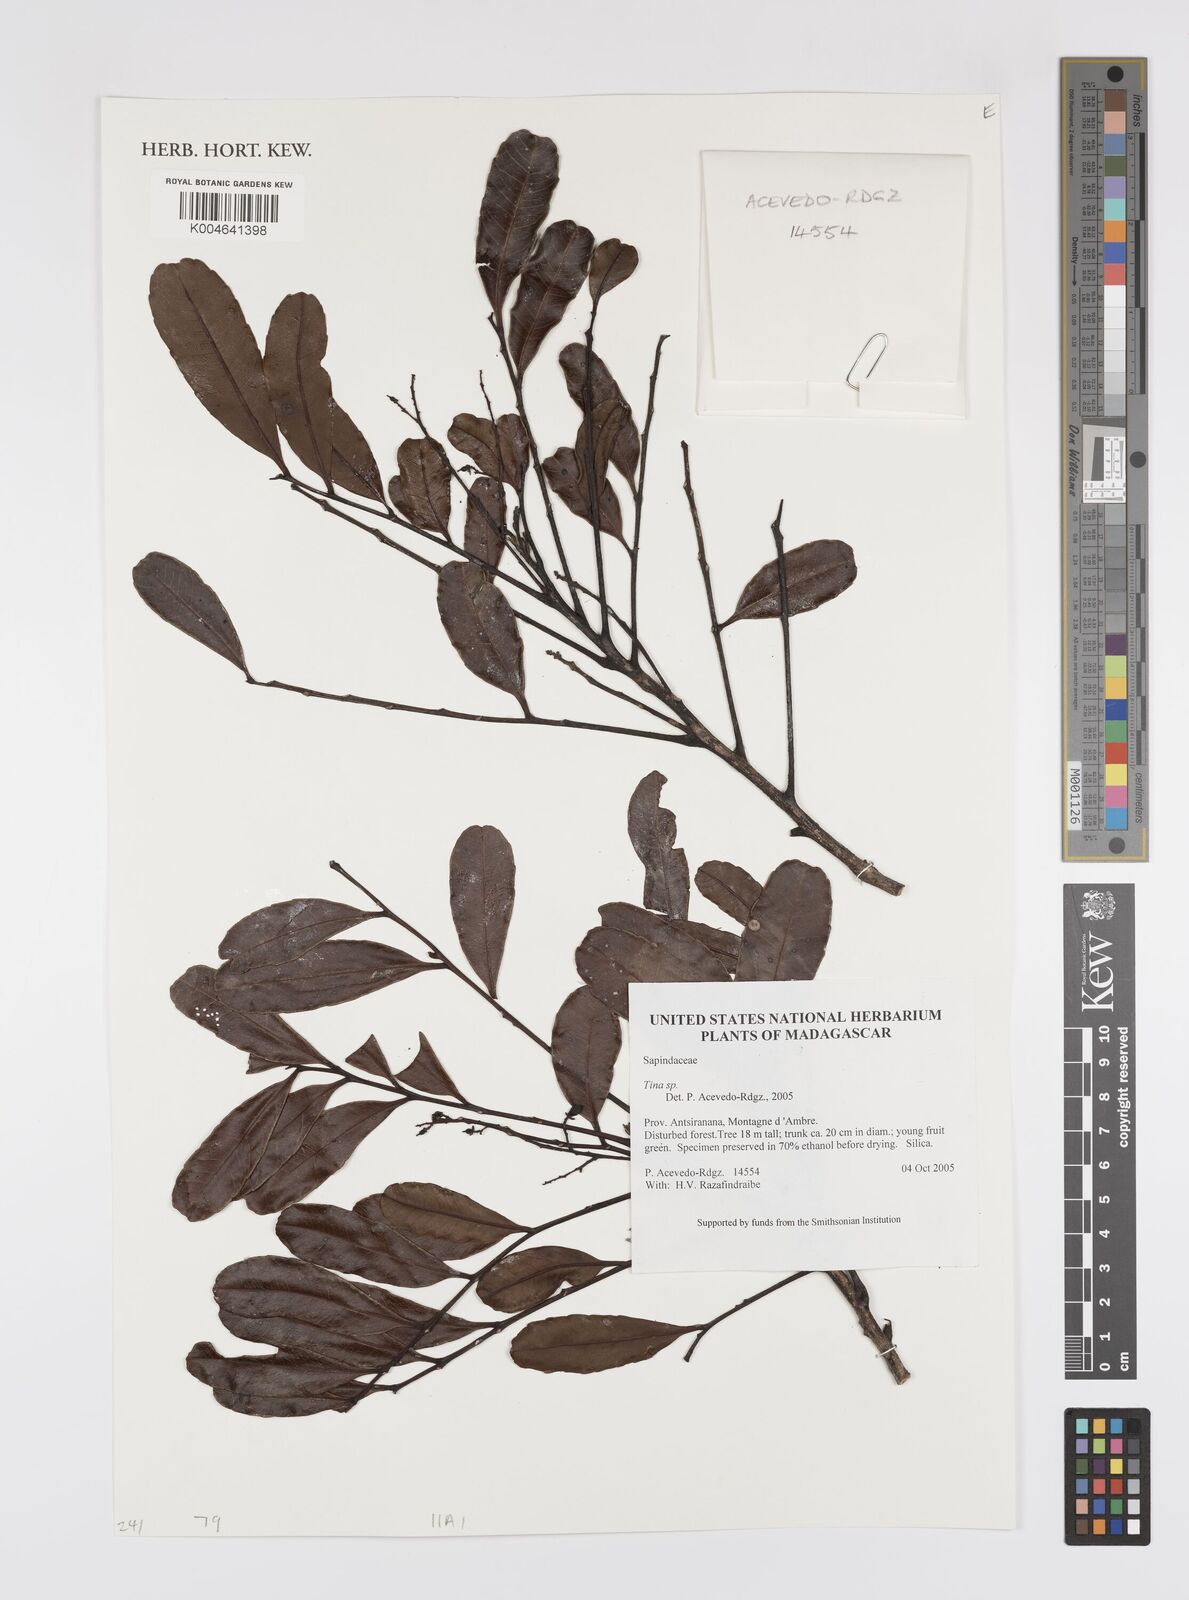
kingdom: Plantae
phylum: Tracheophyta
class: Magnoliopsida
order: Sapindales
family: Sapindaceae
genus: Tina
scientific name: Tina
